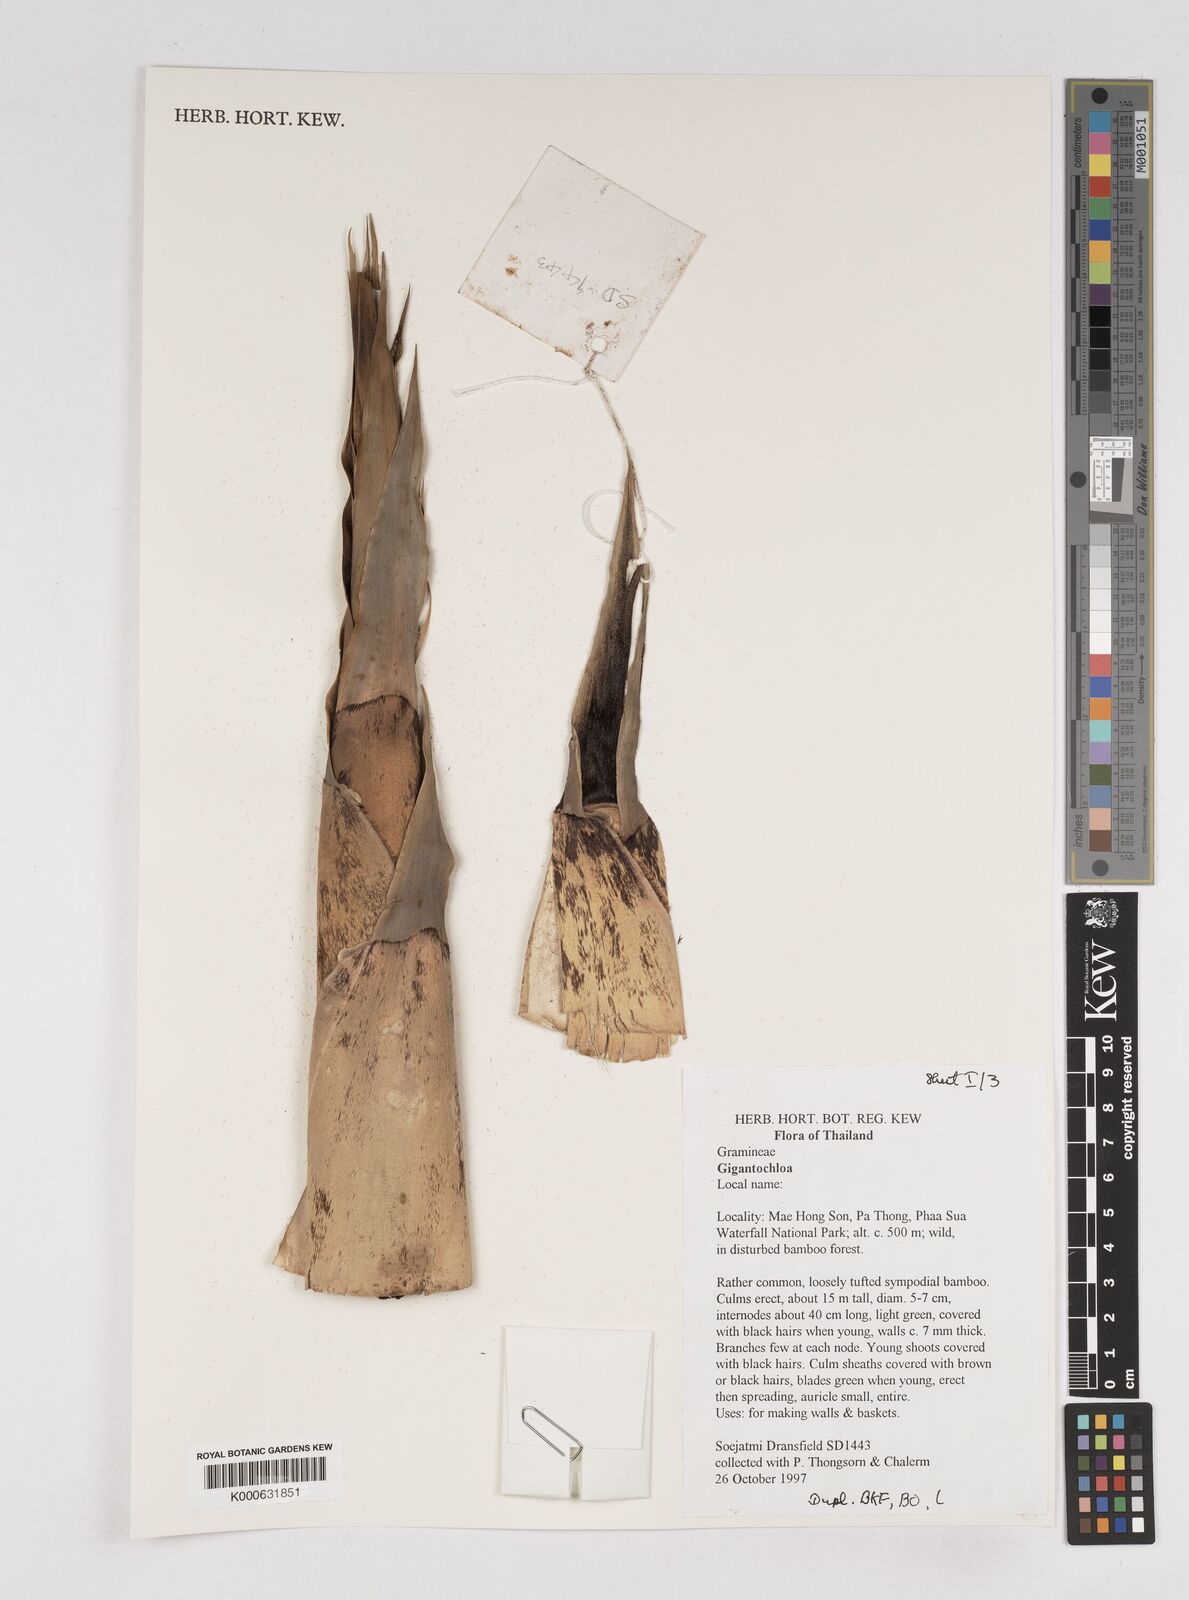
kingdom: Plantae
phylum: Tracheophyta
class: Liliopsida
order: Poales
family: Poaceae
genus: Gigantochloa
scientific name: Gigantochloa
